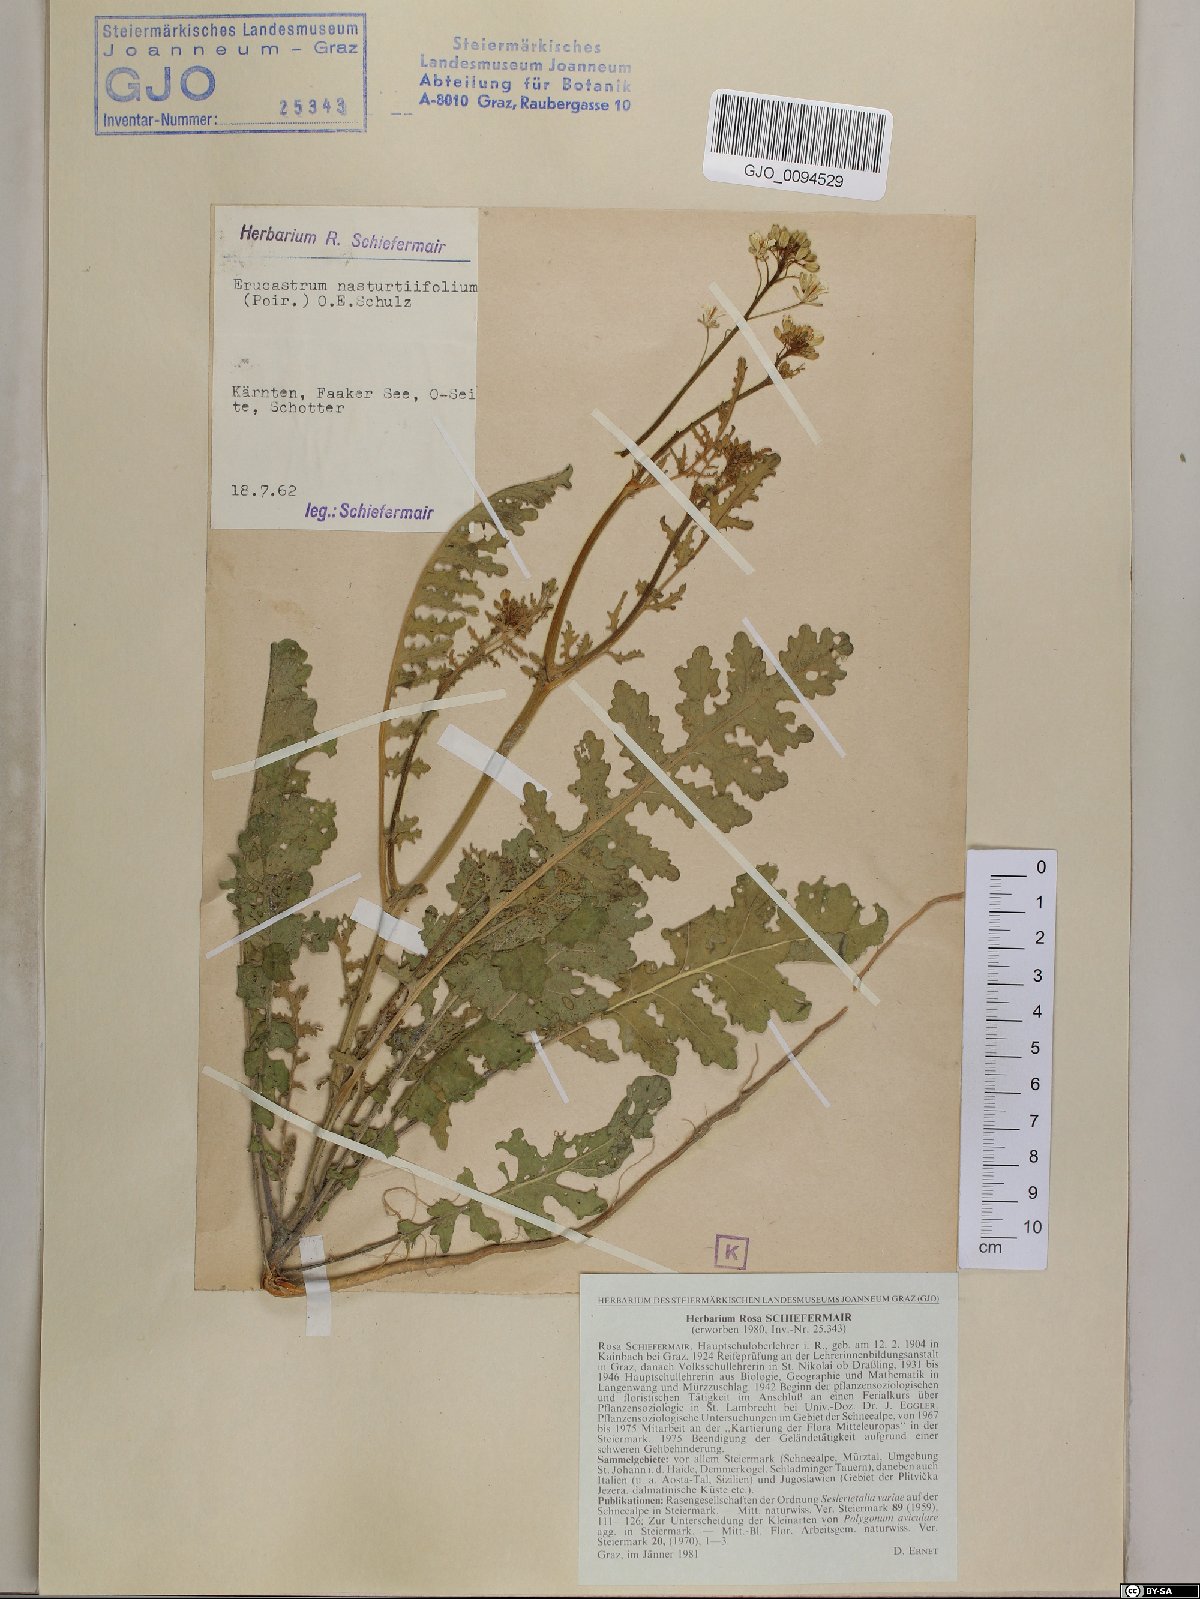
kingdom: Plantae
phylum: Tracheophyta
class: Magnoliopsida
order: Brassicales
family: Brassicaceae
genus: Erucastrum
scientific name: Erucastrum nasturtiifolium
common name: Watercress-leaf rocket
